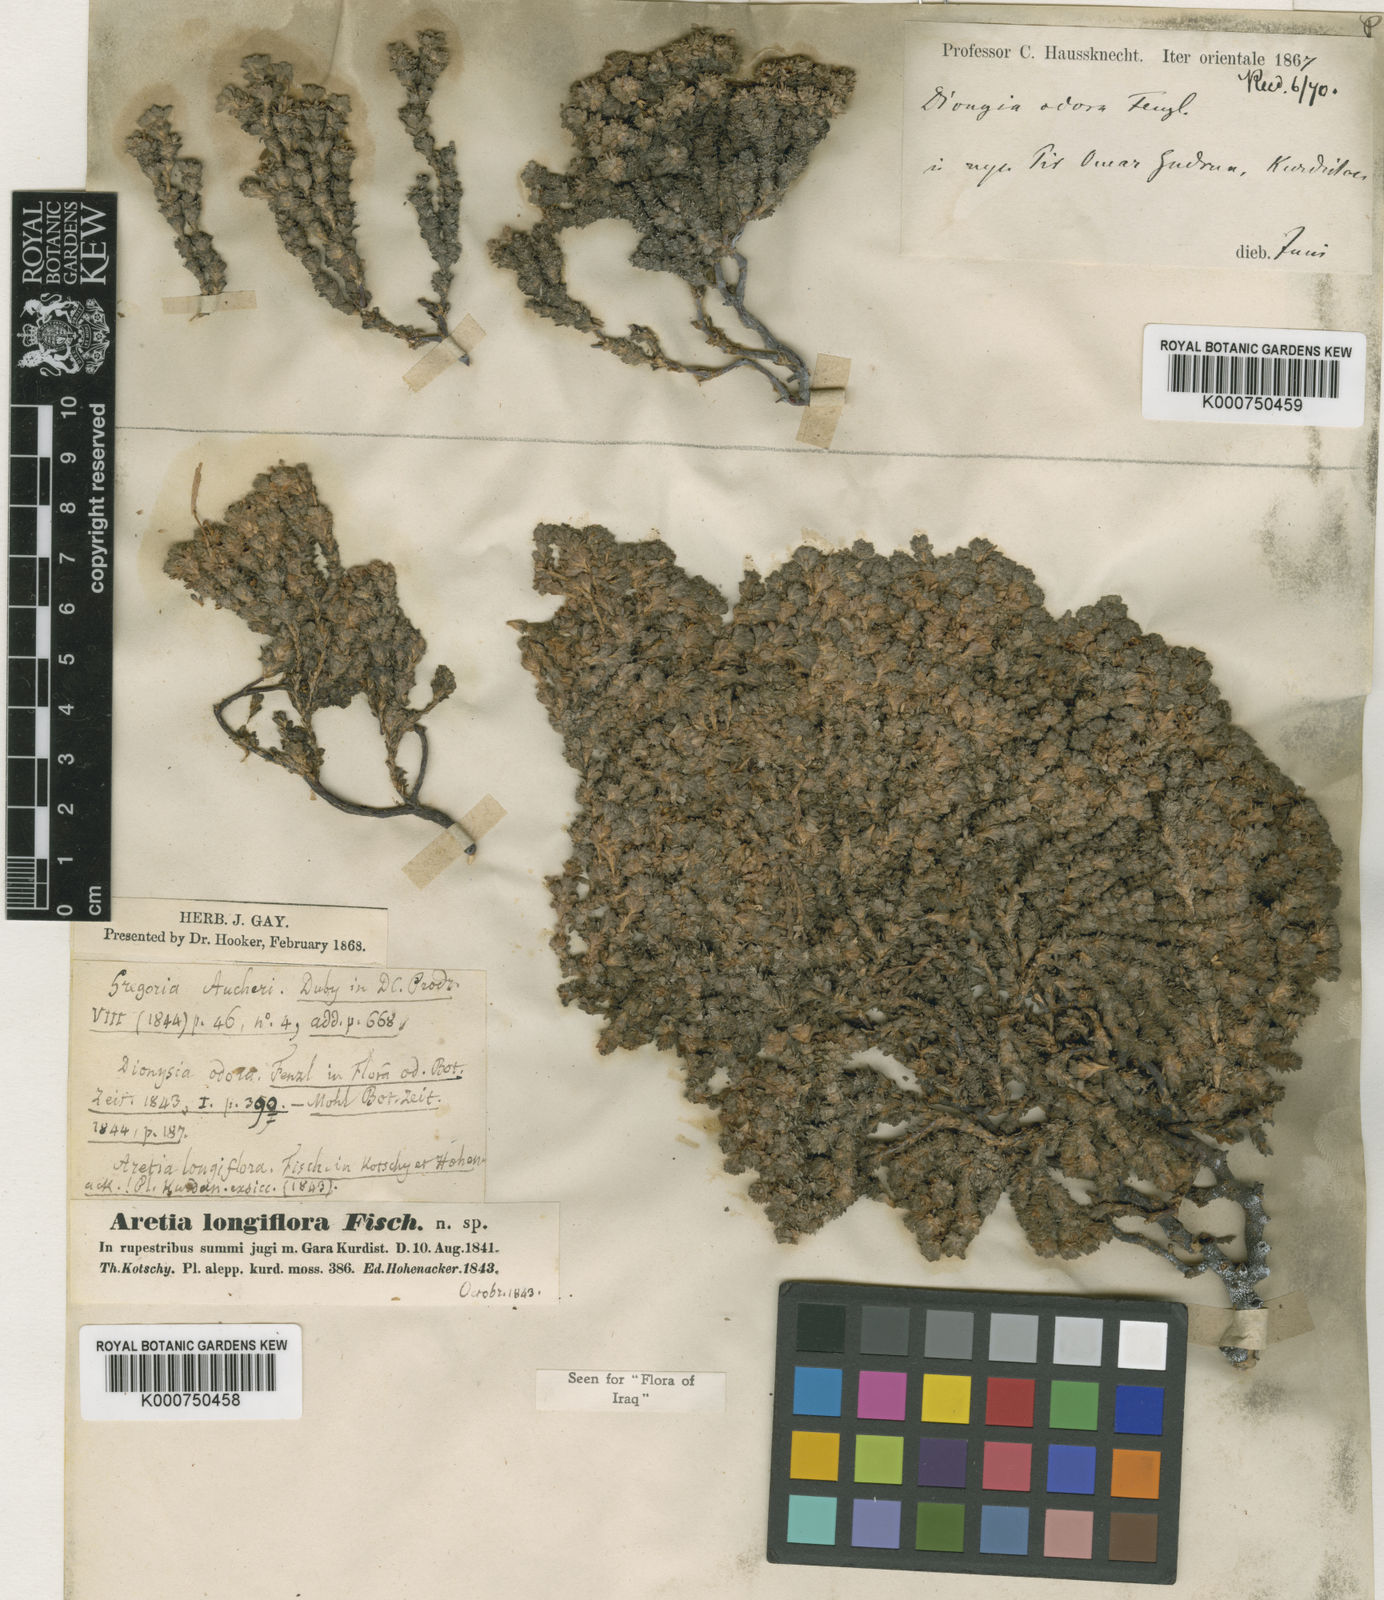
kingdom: Plantae
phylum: Tracheophyta
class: Magnoliopsida
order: Ericales
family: Primulaceae
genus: Dionysia
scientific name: Dionysia odora
